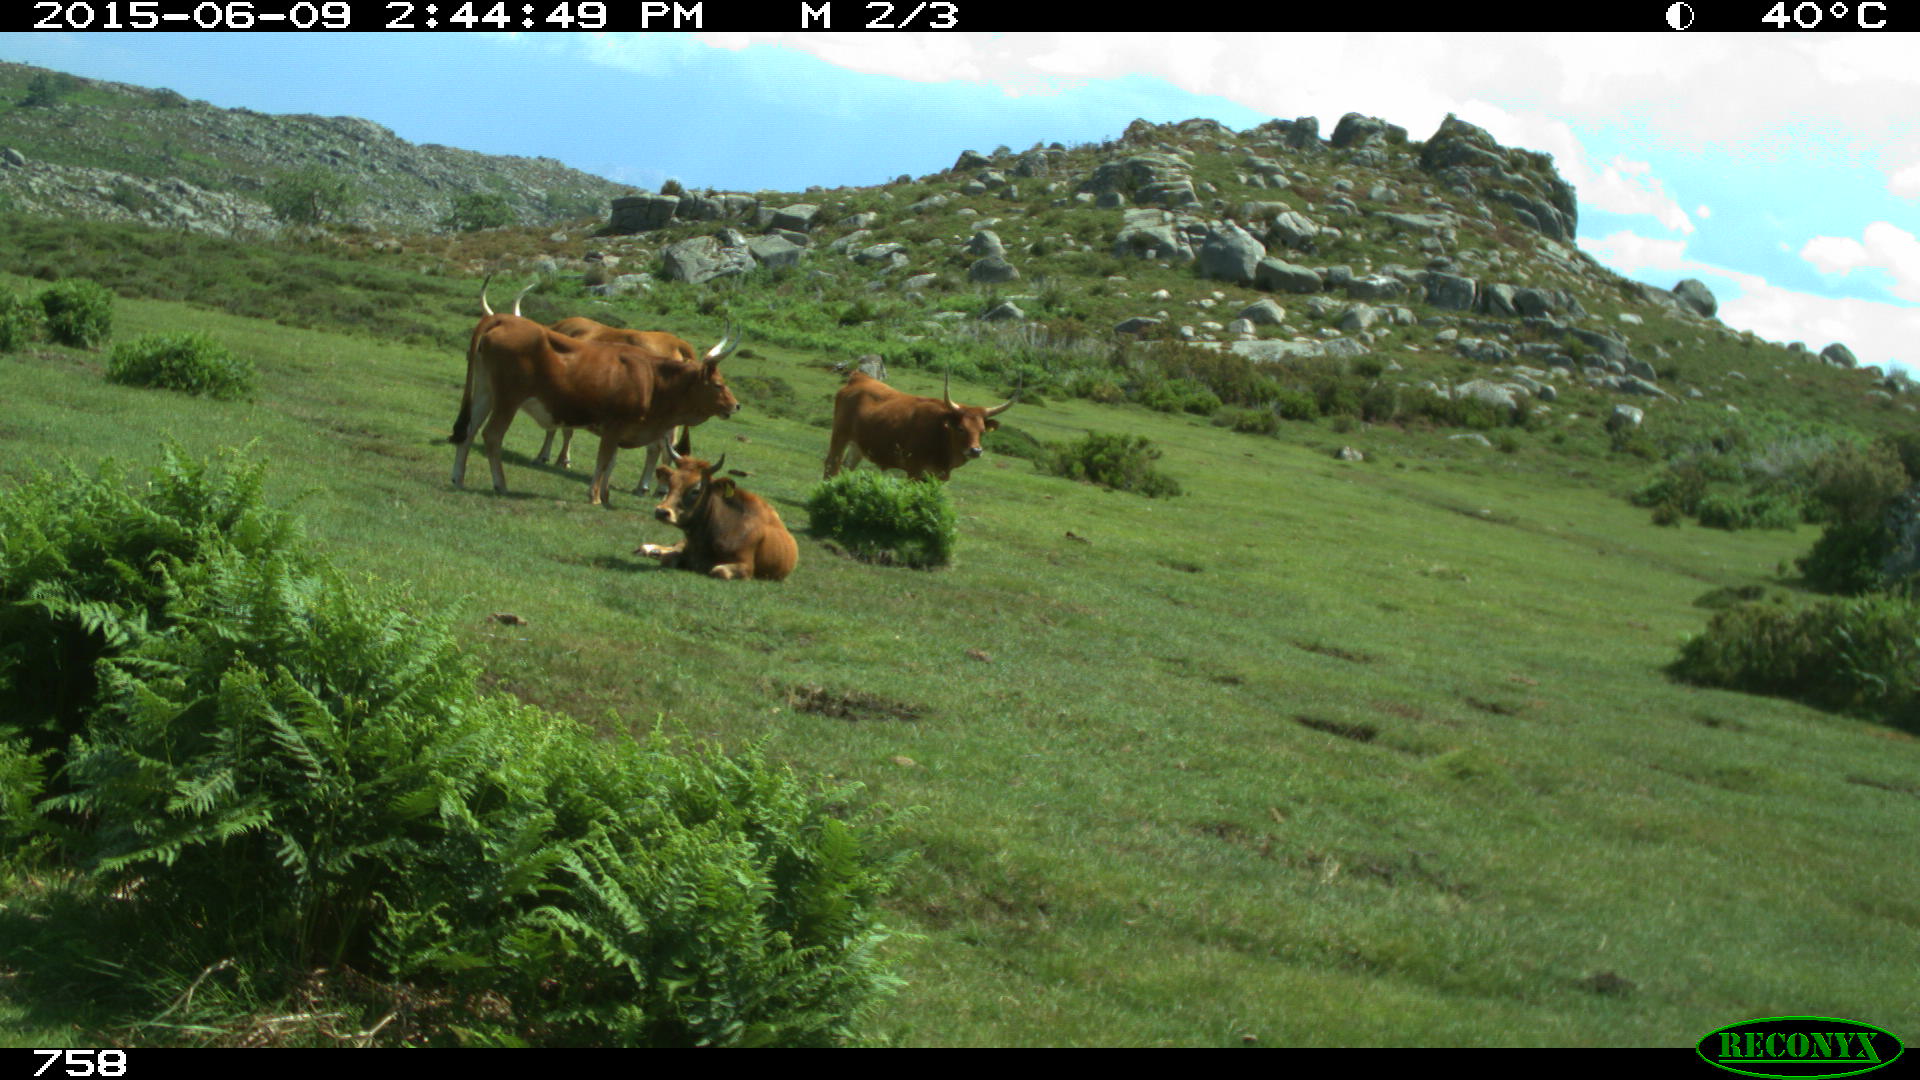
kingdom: Animalia
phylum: Chordata
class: Mammalia
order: Artiodactyla
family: Bovidae
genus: Bos
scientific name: Bos taurus
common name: Domesticated cattle
